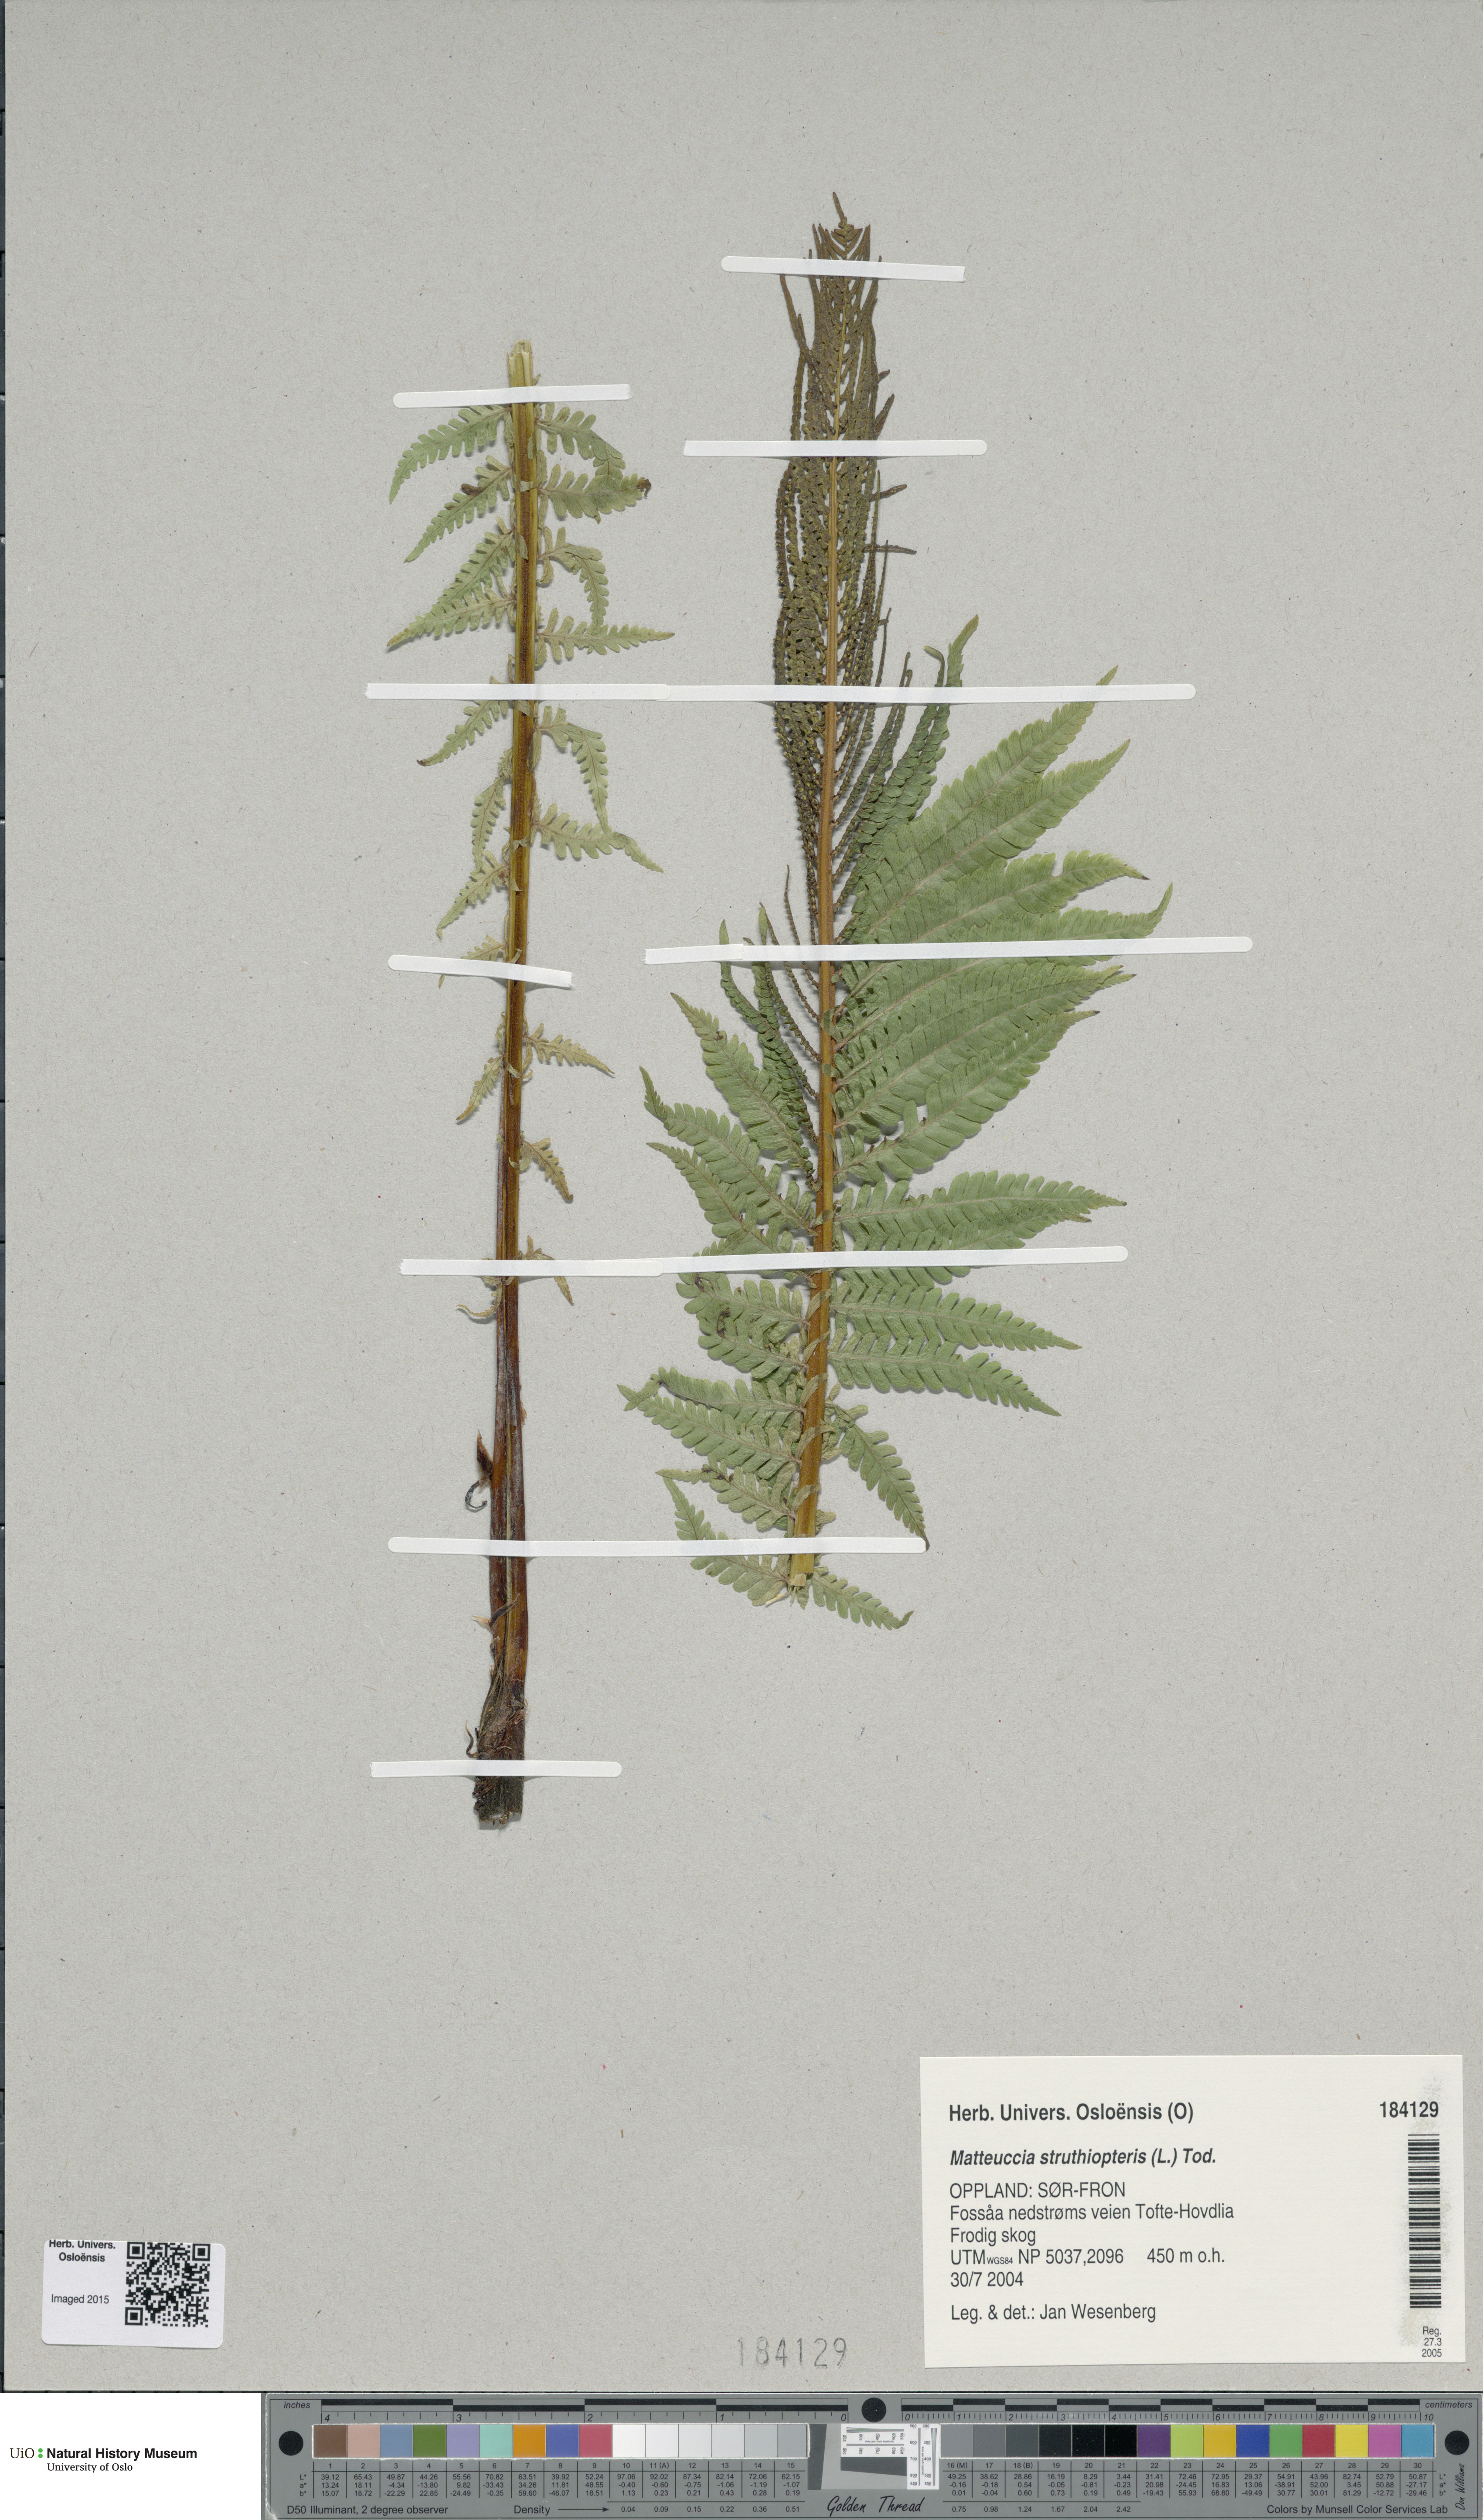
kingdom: Plantae
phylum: Tracheophyta
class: Polypodiopsida
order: Polypodiales
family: Onocleaceae
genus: Matteuccia
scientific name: Matteuccia struthiopteris
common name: Ostrich fern
